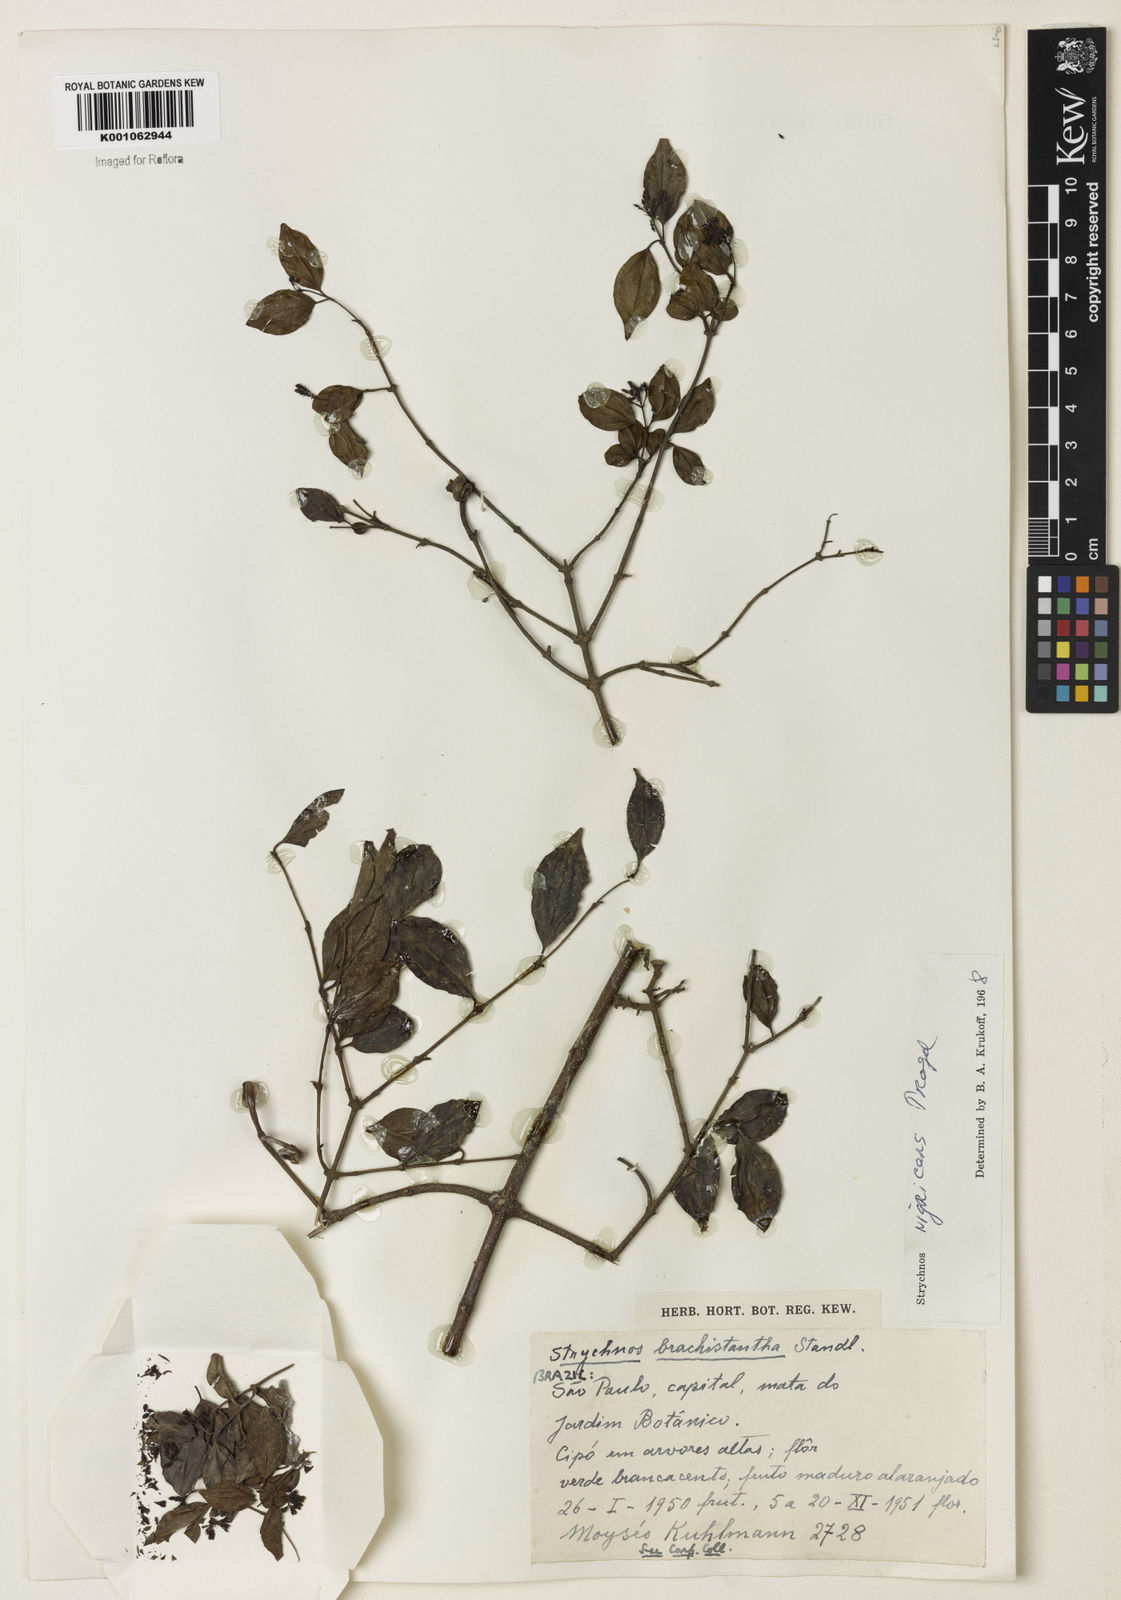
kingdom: Plantae
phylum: Tracheophyta
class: Magnoliopsida
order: Gentianales
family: Loganiaceae
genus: Strychnos
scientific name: Strychnos nigricans
